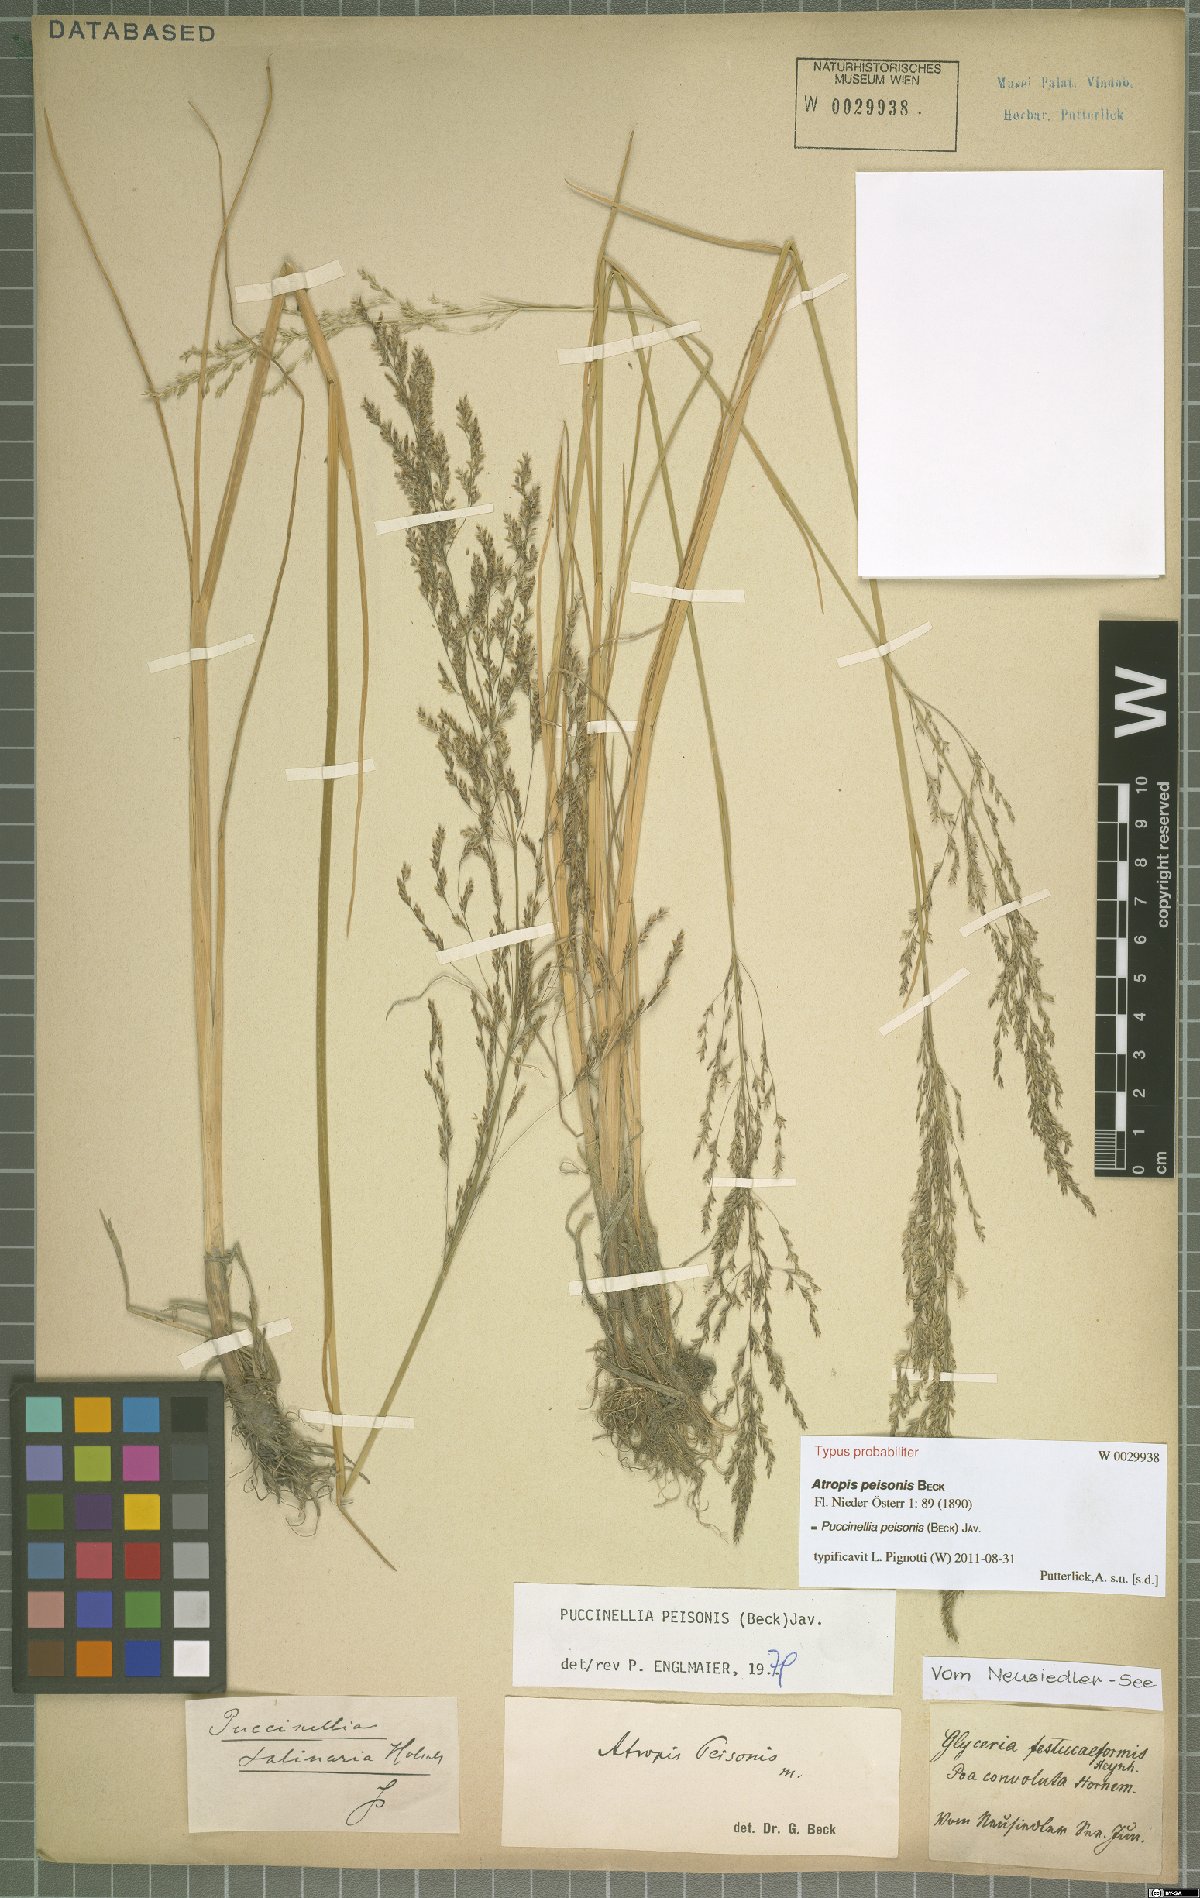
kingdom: Plantae
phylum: Tracheophyta
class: Liliopsida
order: Poales
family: Poaceae
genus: Puccinellia
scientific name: Puccinellia intermedia
